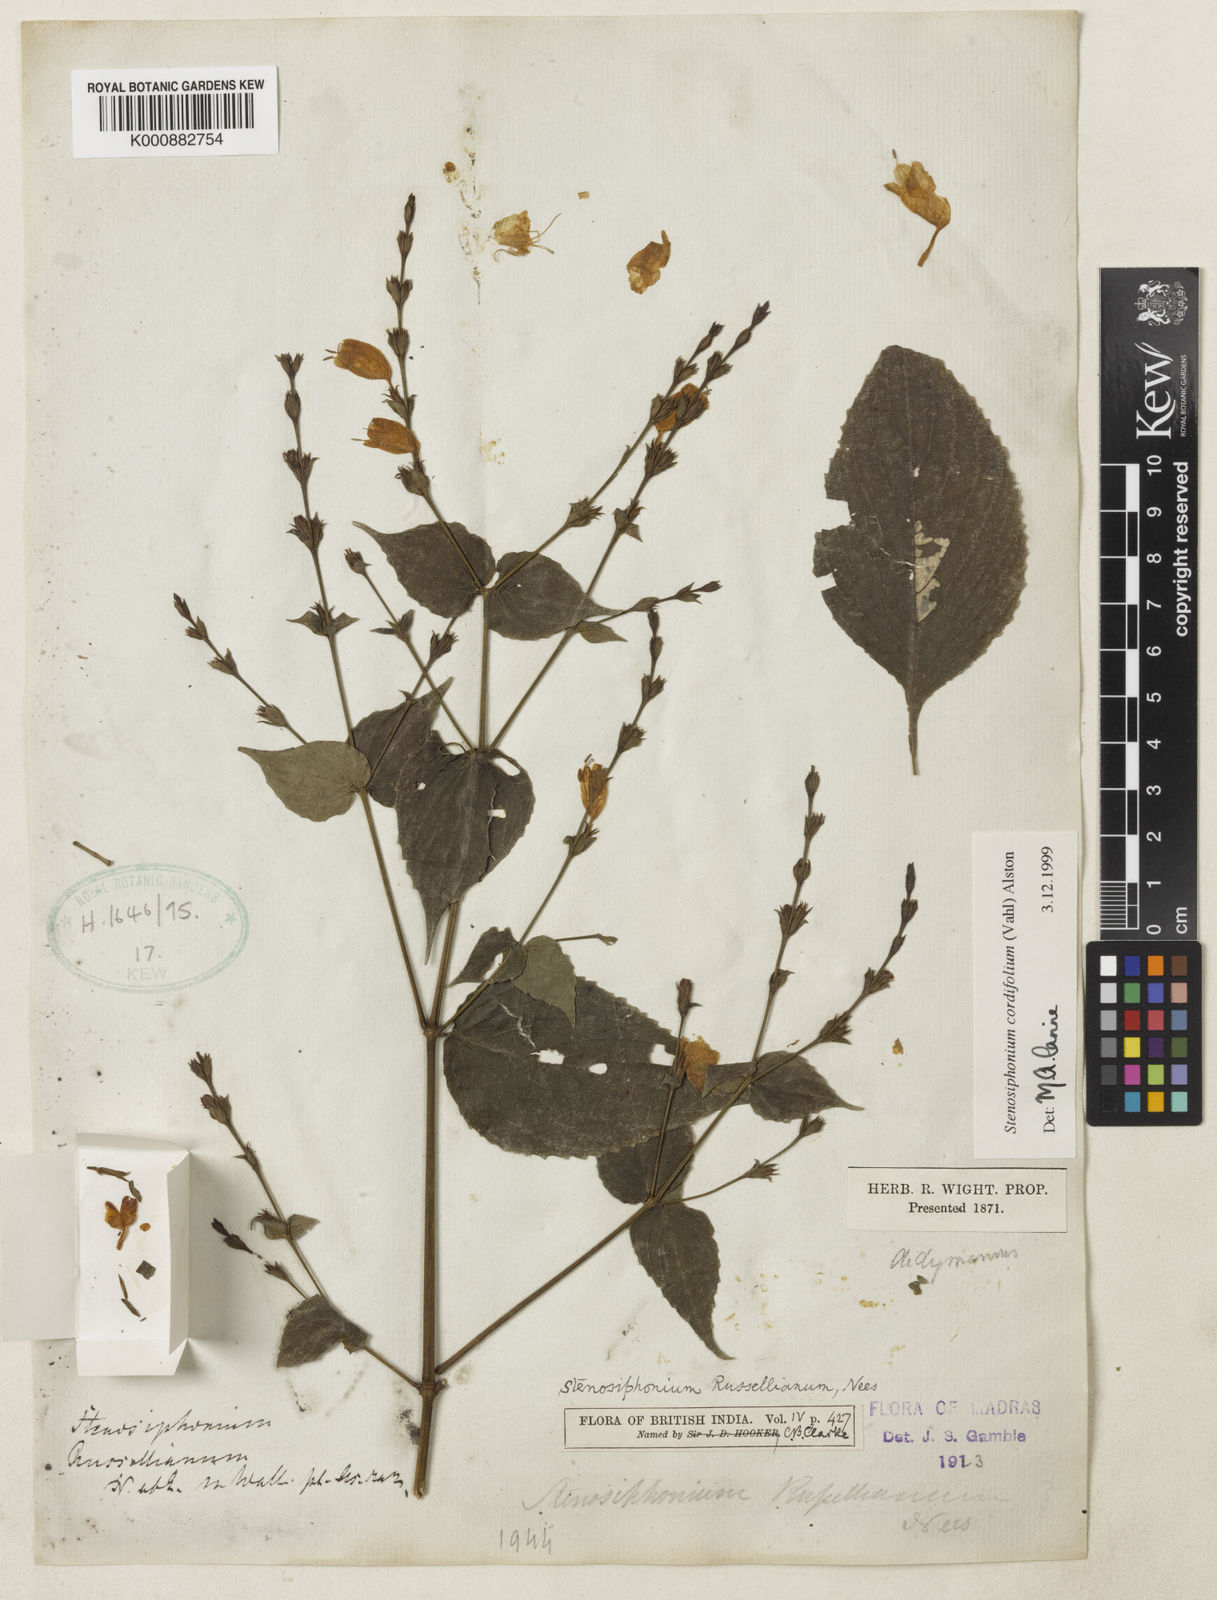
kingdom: Plantae
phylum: Tracheophyta
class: Magnoliopsida
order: Lamiales
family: Acanthaceae
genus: Strobilanthes
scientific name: Strobilanthes cordifolia
